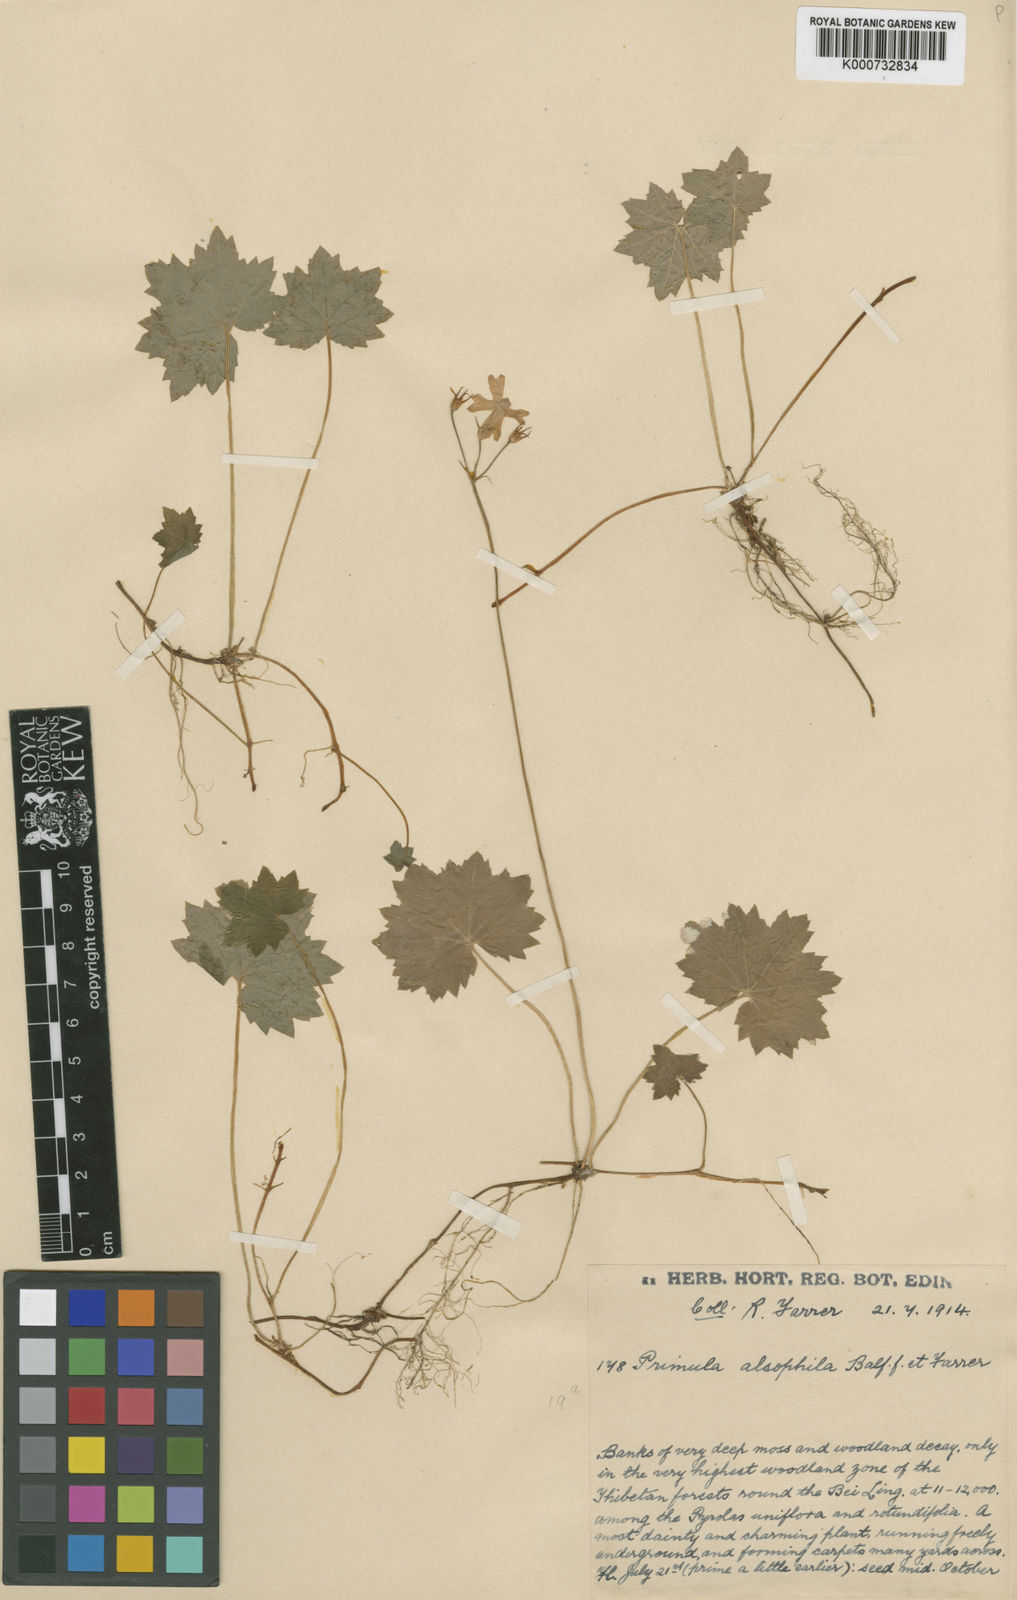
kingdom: Plantae
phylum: Tracheophyta
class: Magnoliopsida
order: Ericales
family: Primulaceae
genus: Primula
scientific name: Primula alsophila
